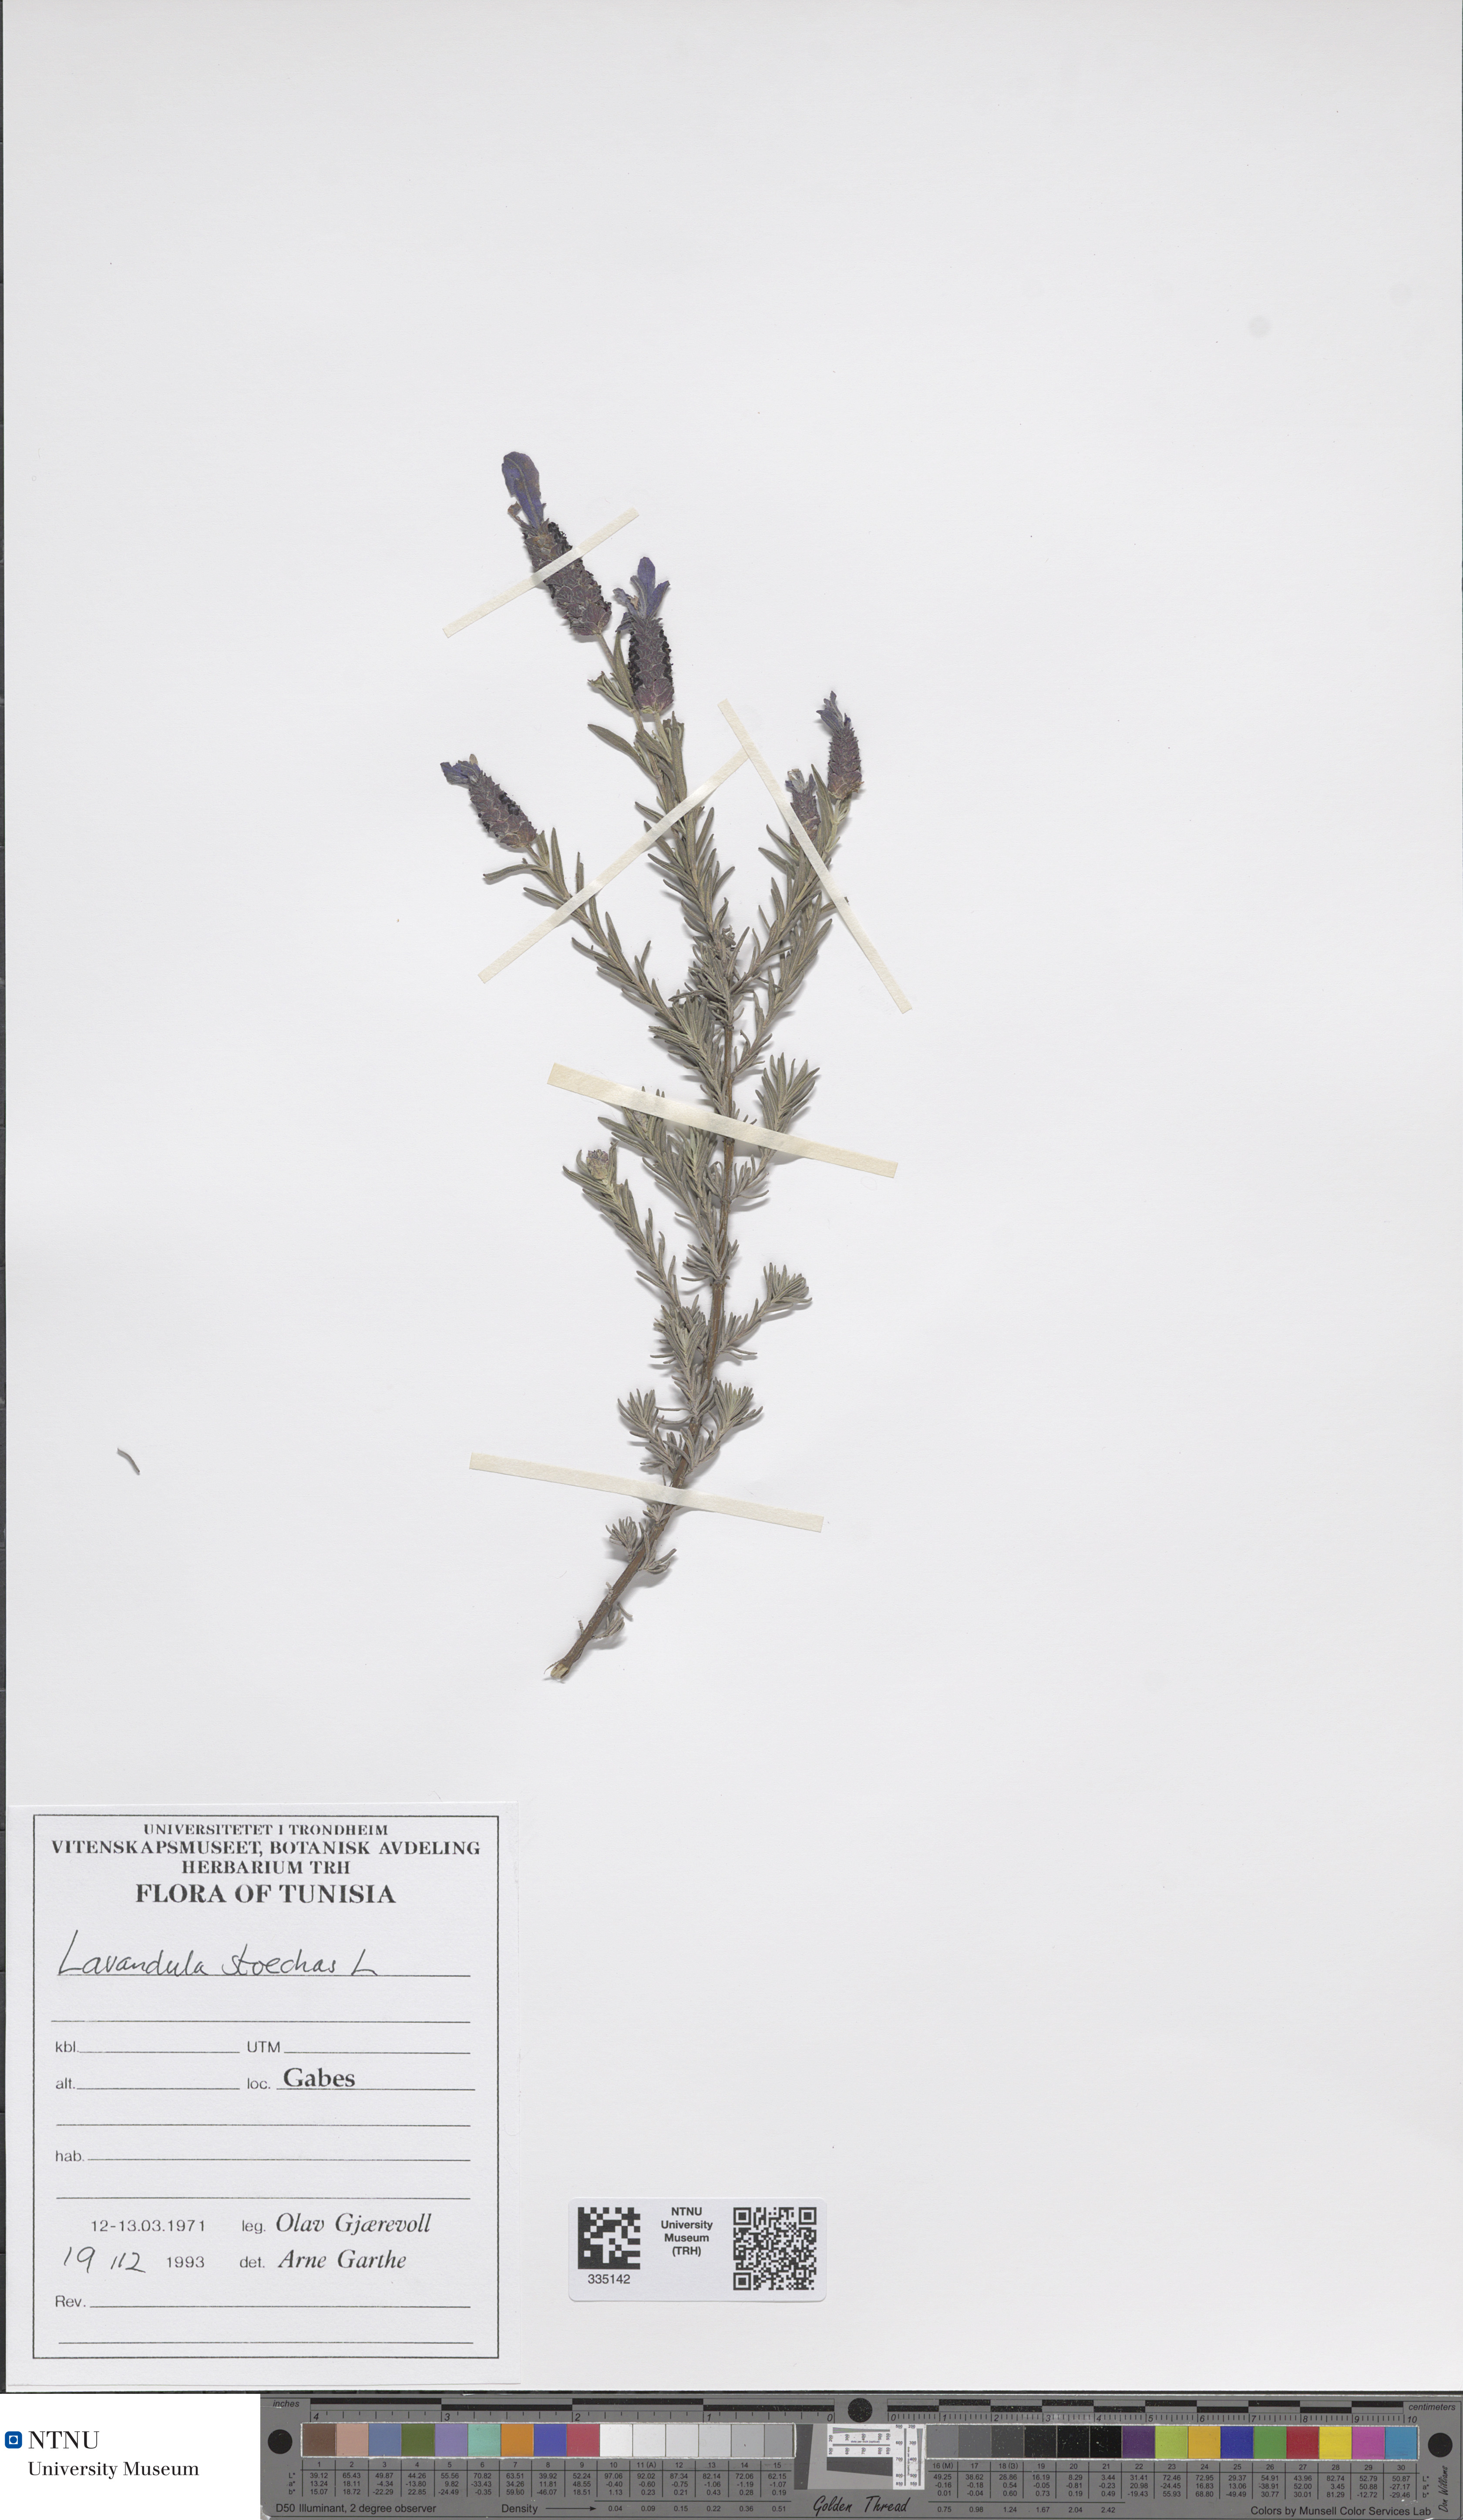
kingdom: Plantae
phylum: Tracheophyta
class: Magnoliopsida
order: Lamiales
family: Lamiaceae
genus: Lavandula
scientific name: Lavandula stoechas
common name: French lavender
